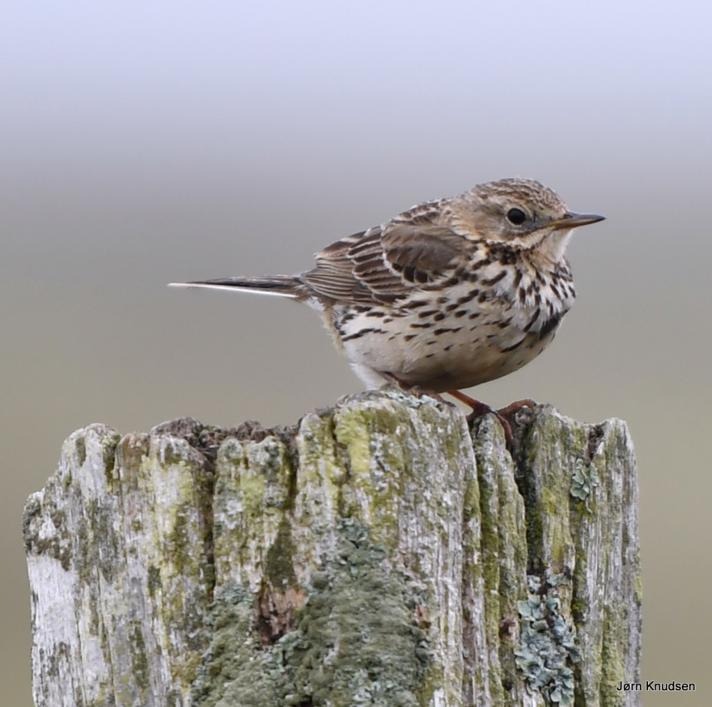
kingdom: Animalia
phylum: Chordata
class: Aves
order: Passeriformes
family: Motacillidae
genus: Anthus
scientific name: Anthus pratensis
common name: Engpiber
